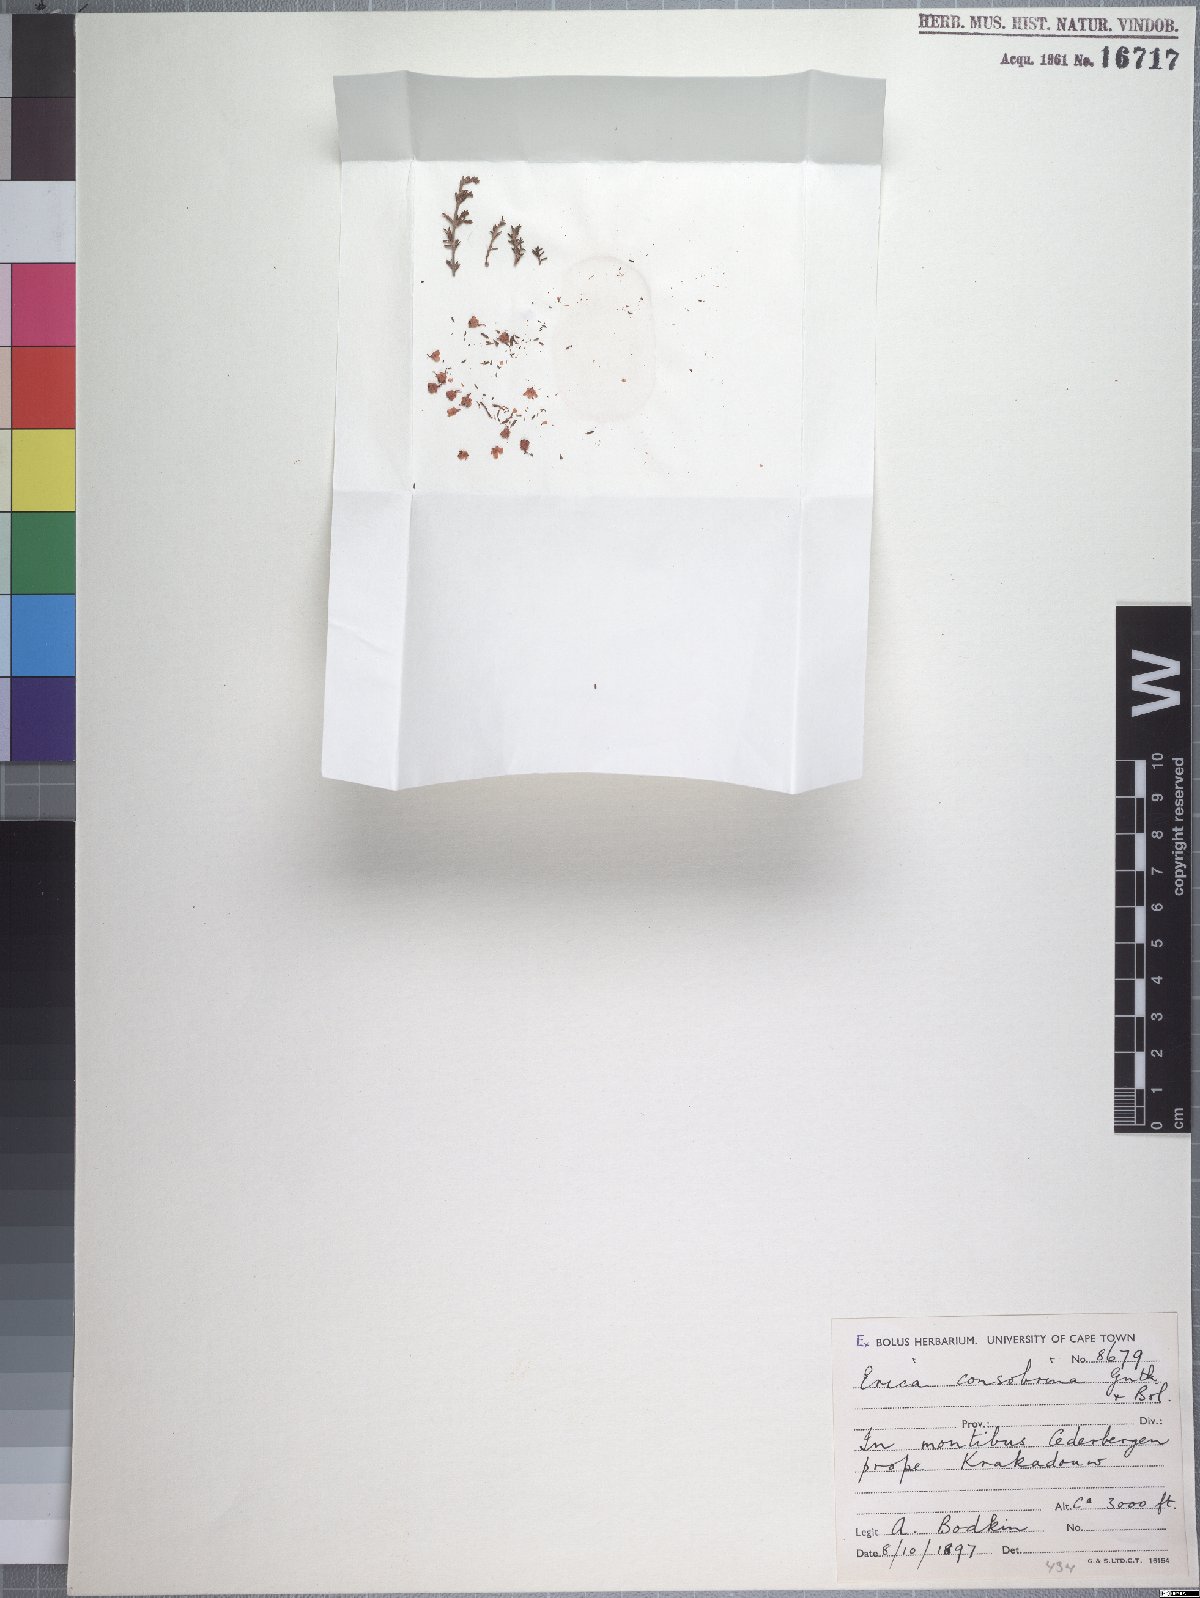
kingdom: Plantae
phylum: Tracheophyta
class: Magnoliopsida
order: Ericales
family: Ericaceae
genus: Erica
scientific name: Erica consobrina
